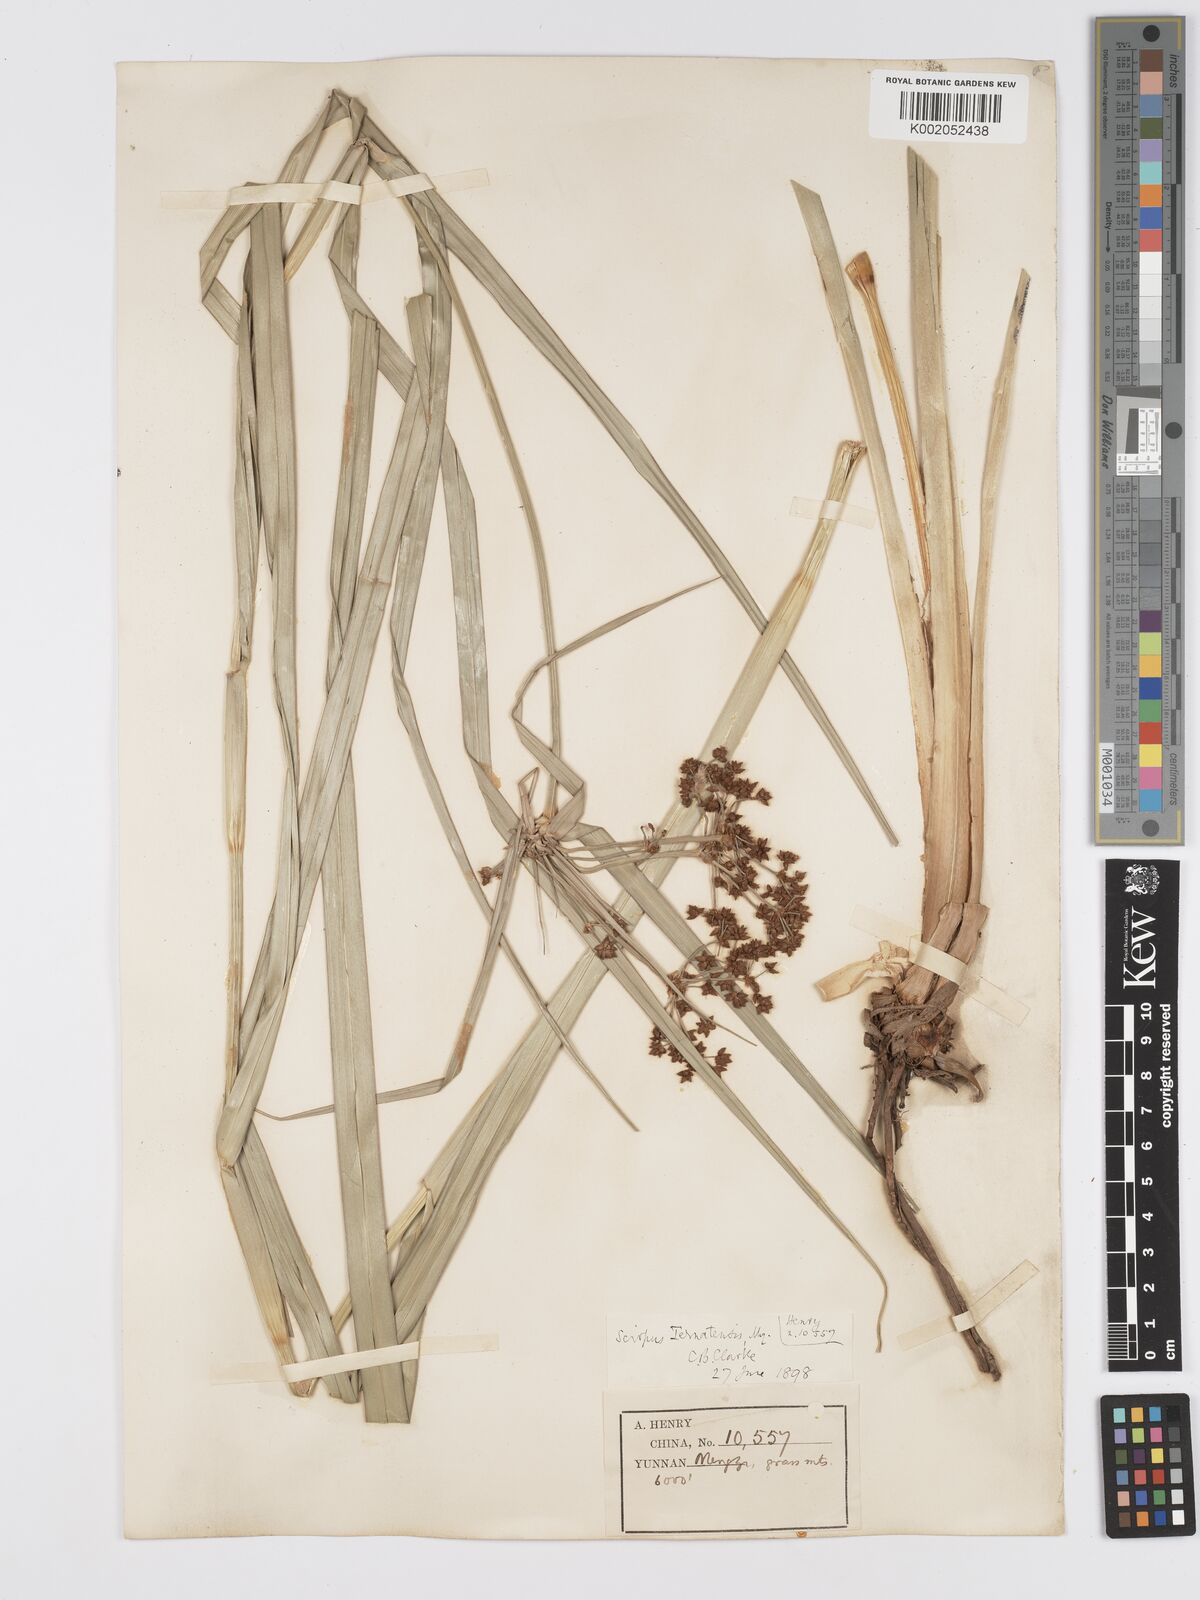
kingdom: Plantae
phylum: Tracheophyta
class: Liliopsida
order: Poales
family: Cyperaceae
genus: Scirpus
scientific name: Scirpus ternatanus
